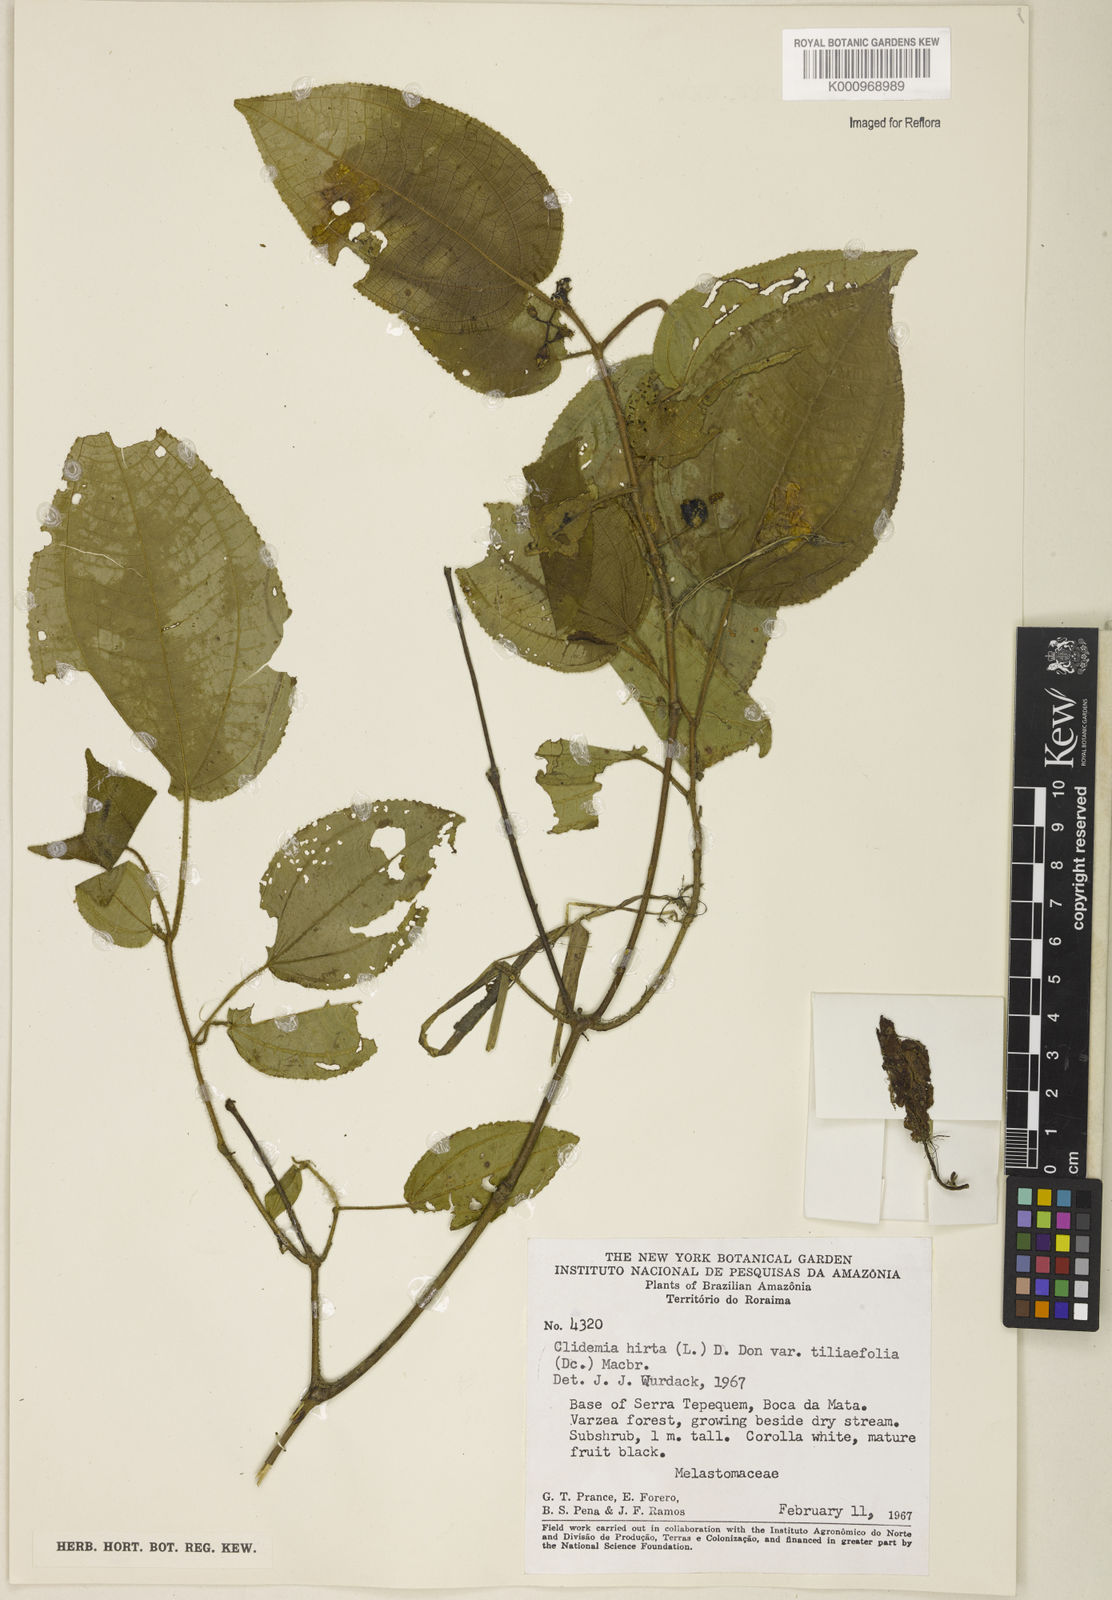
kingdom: Plantae
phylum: Tracheophyta
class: Magnoliopsida
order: Myrtales
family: Melastomataceae
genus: Miconia
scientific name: Miconia crenata
